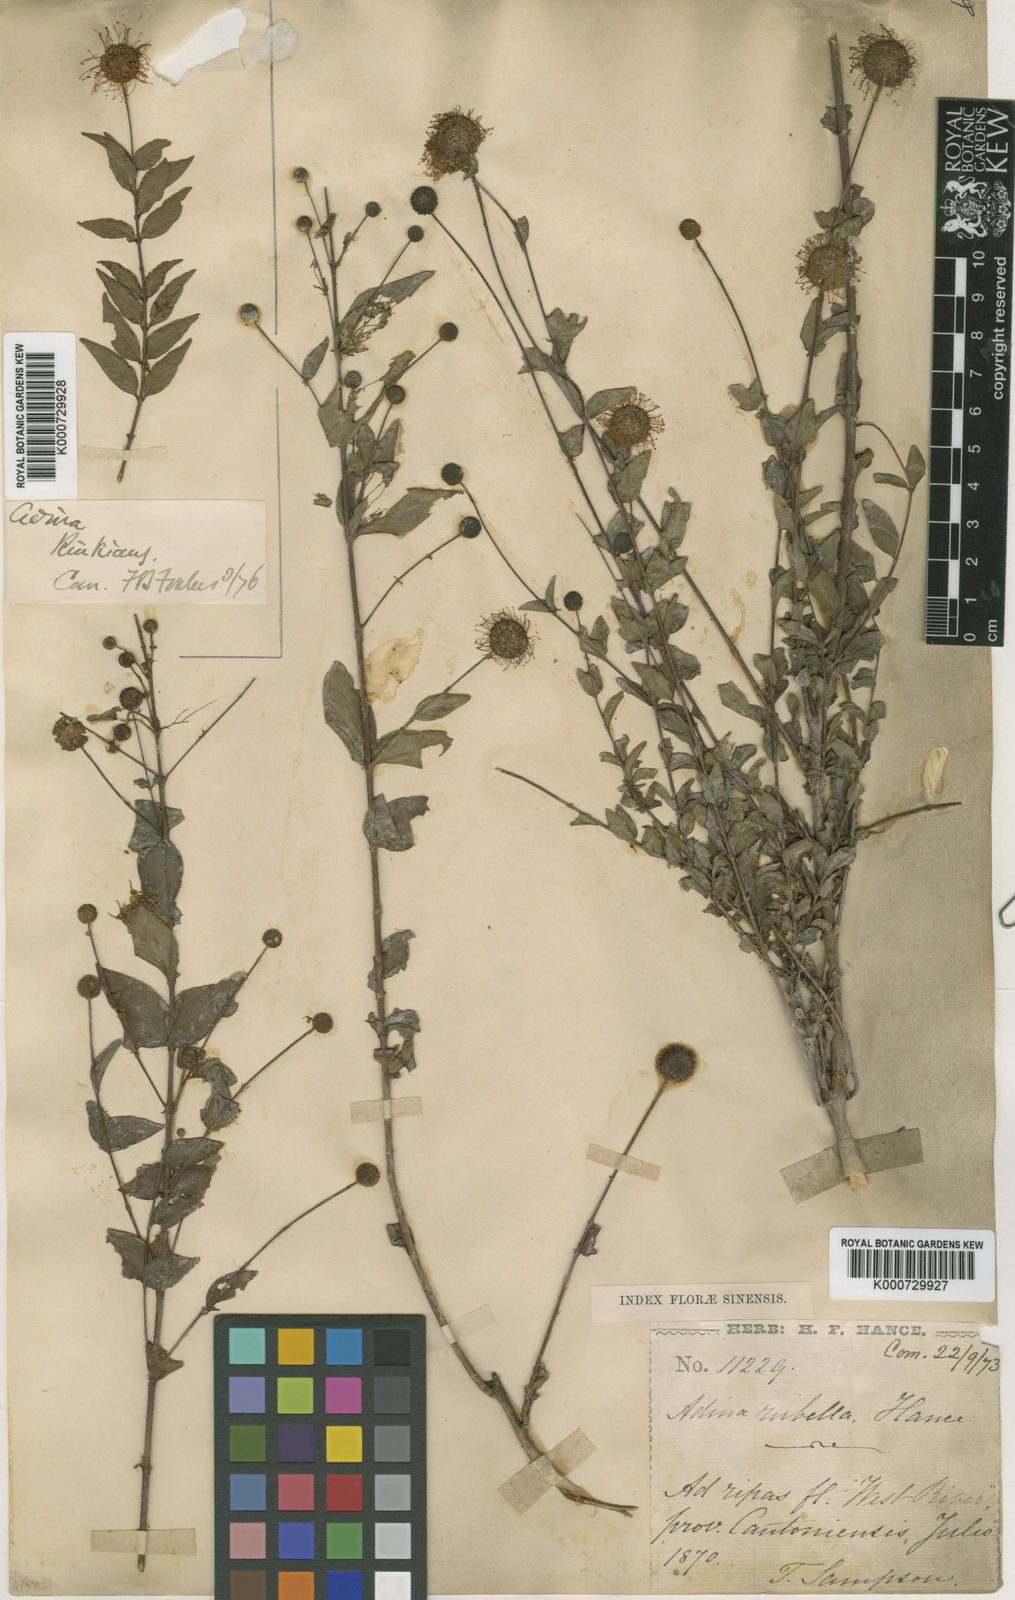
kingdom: Plantae
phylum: Tracheophyta
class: Magnoliopsida
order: Gentianales
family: Rubiaceae
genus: Adina
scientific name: Adina rubella
